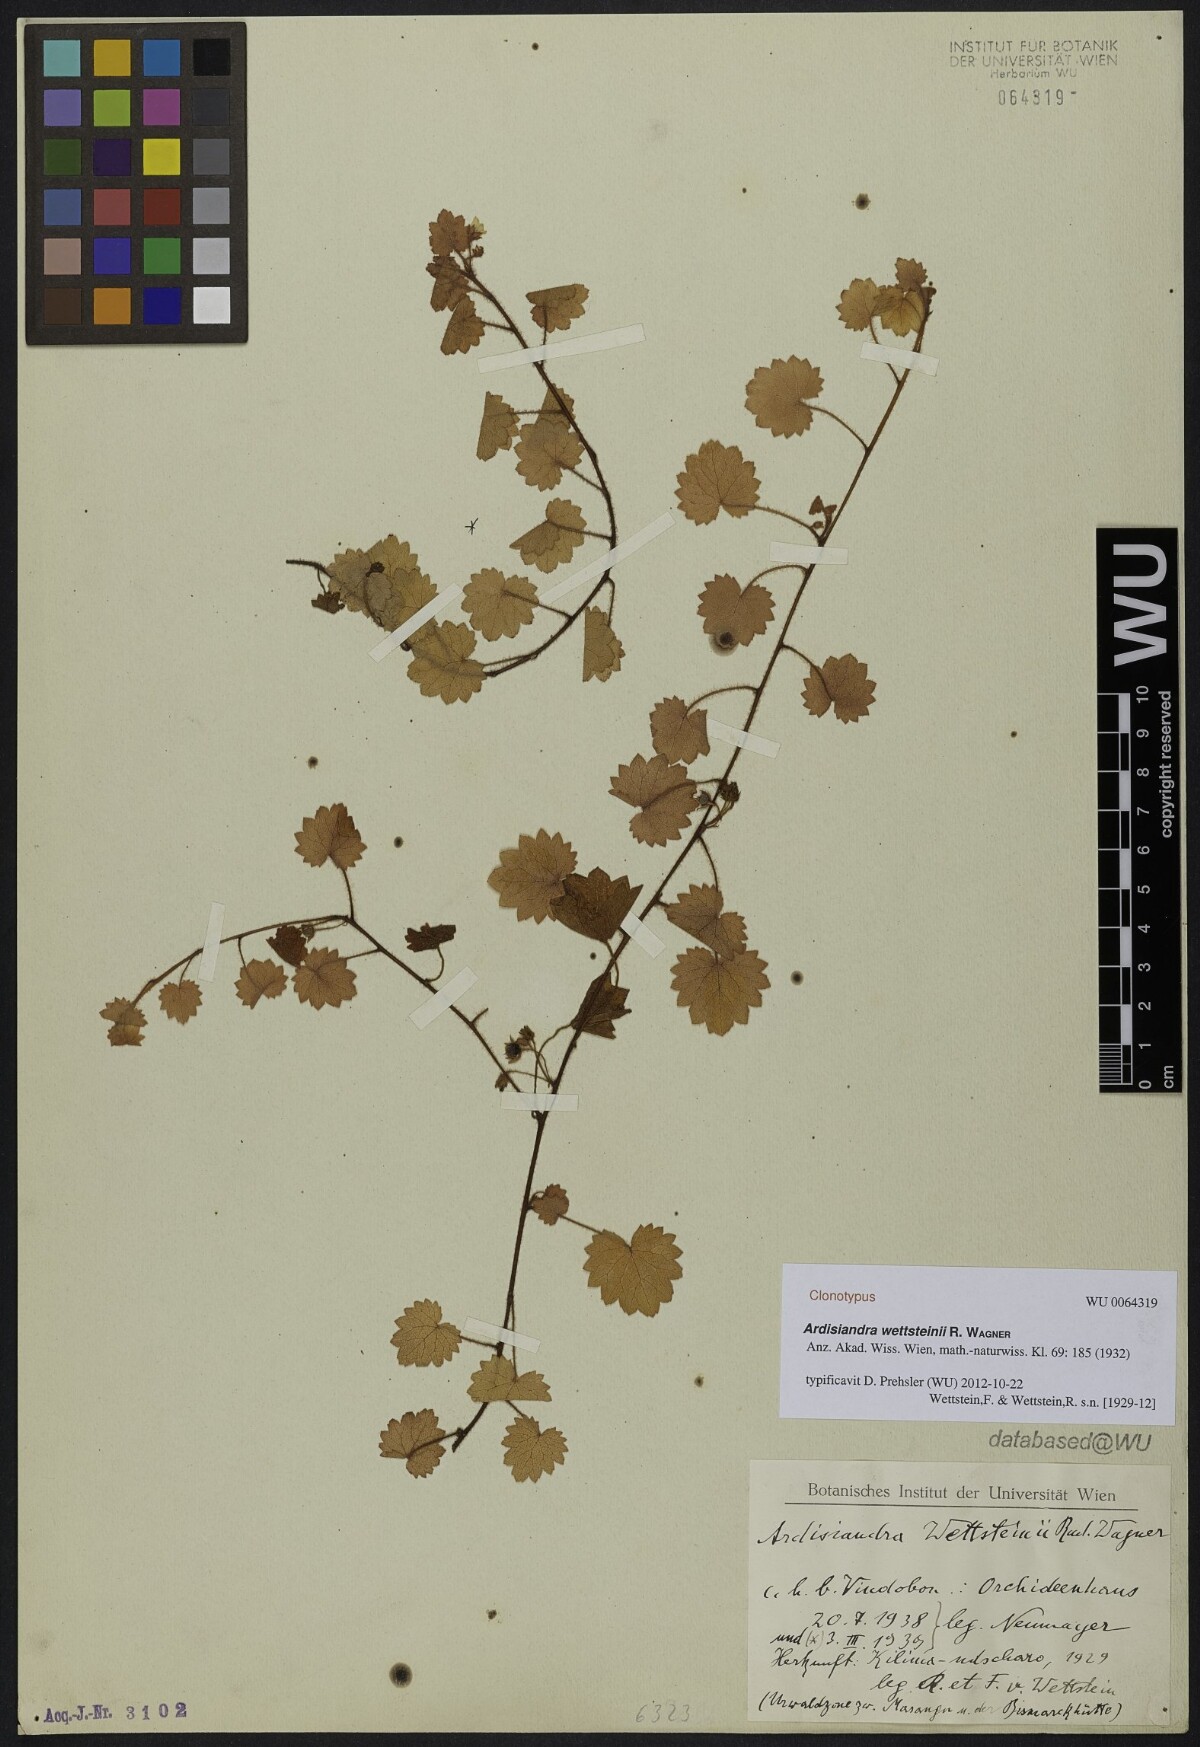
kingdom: Plantae
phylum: Tracheophyta
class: Magnoliopsida
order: Ericales
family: Primulaceae
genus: Ardisiandra
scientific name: Ardisiandra wettsteinii
